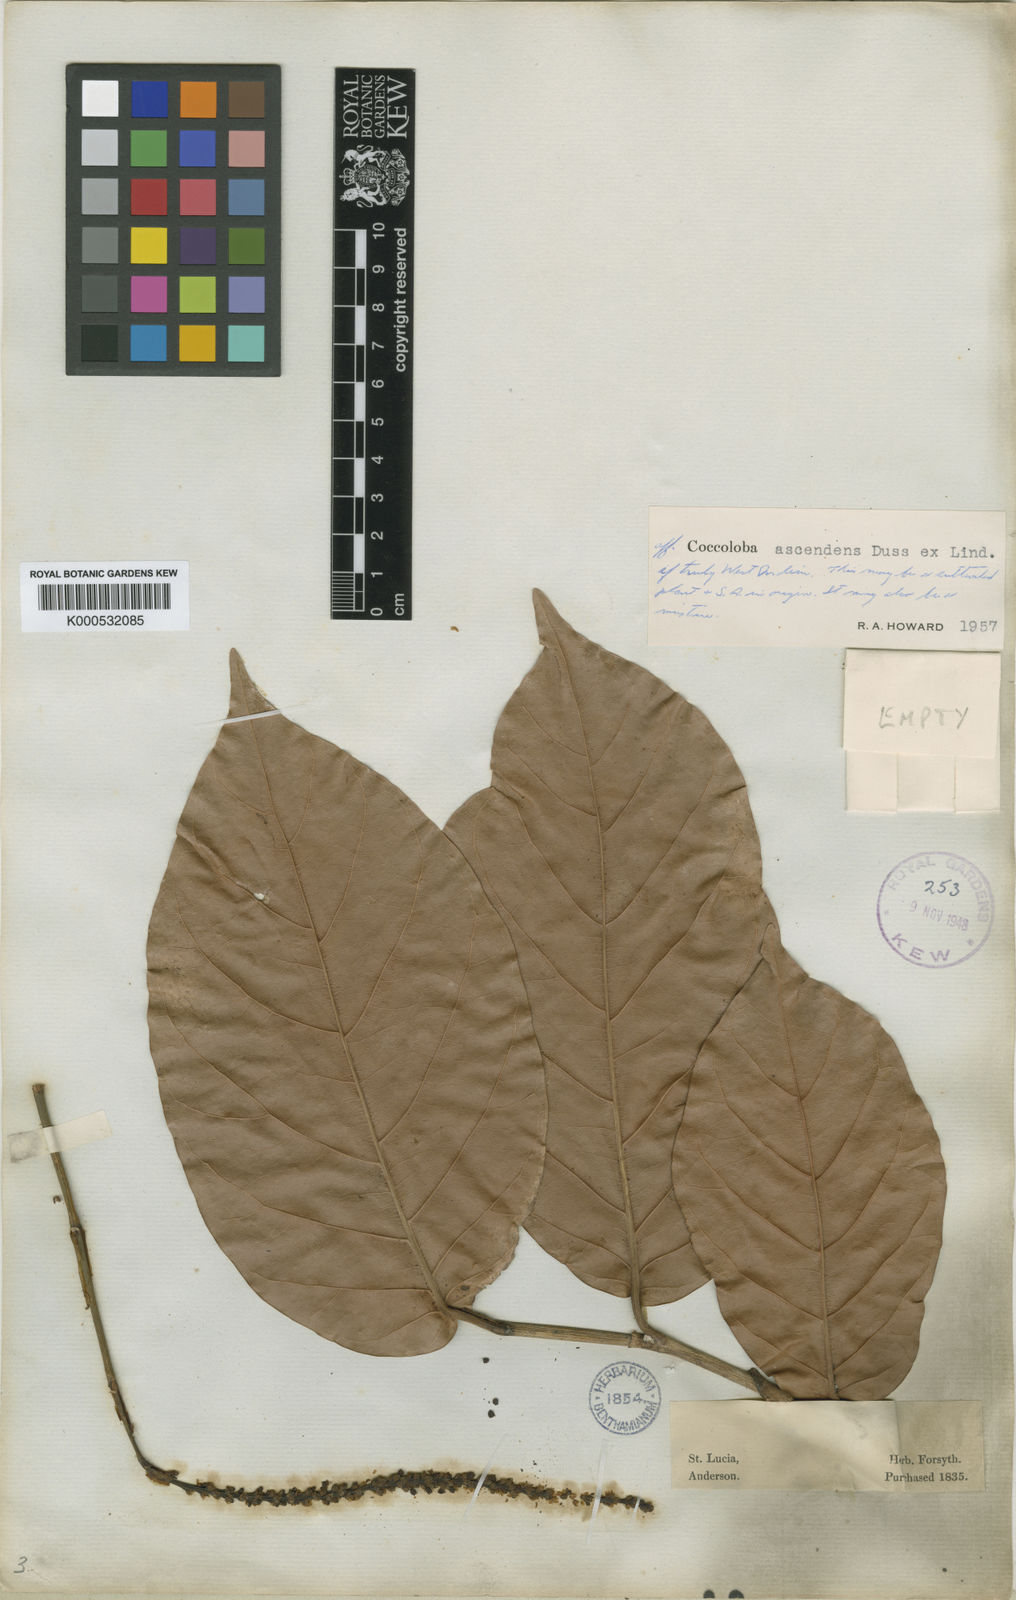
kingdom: Plantae
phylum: Tracheophyta
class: Magnoliopsida
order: Caryophyllales
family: Polygonaceae
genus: Coccoloba
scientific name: Coccoloba
